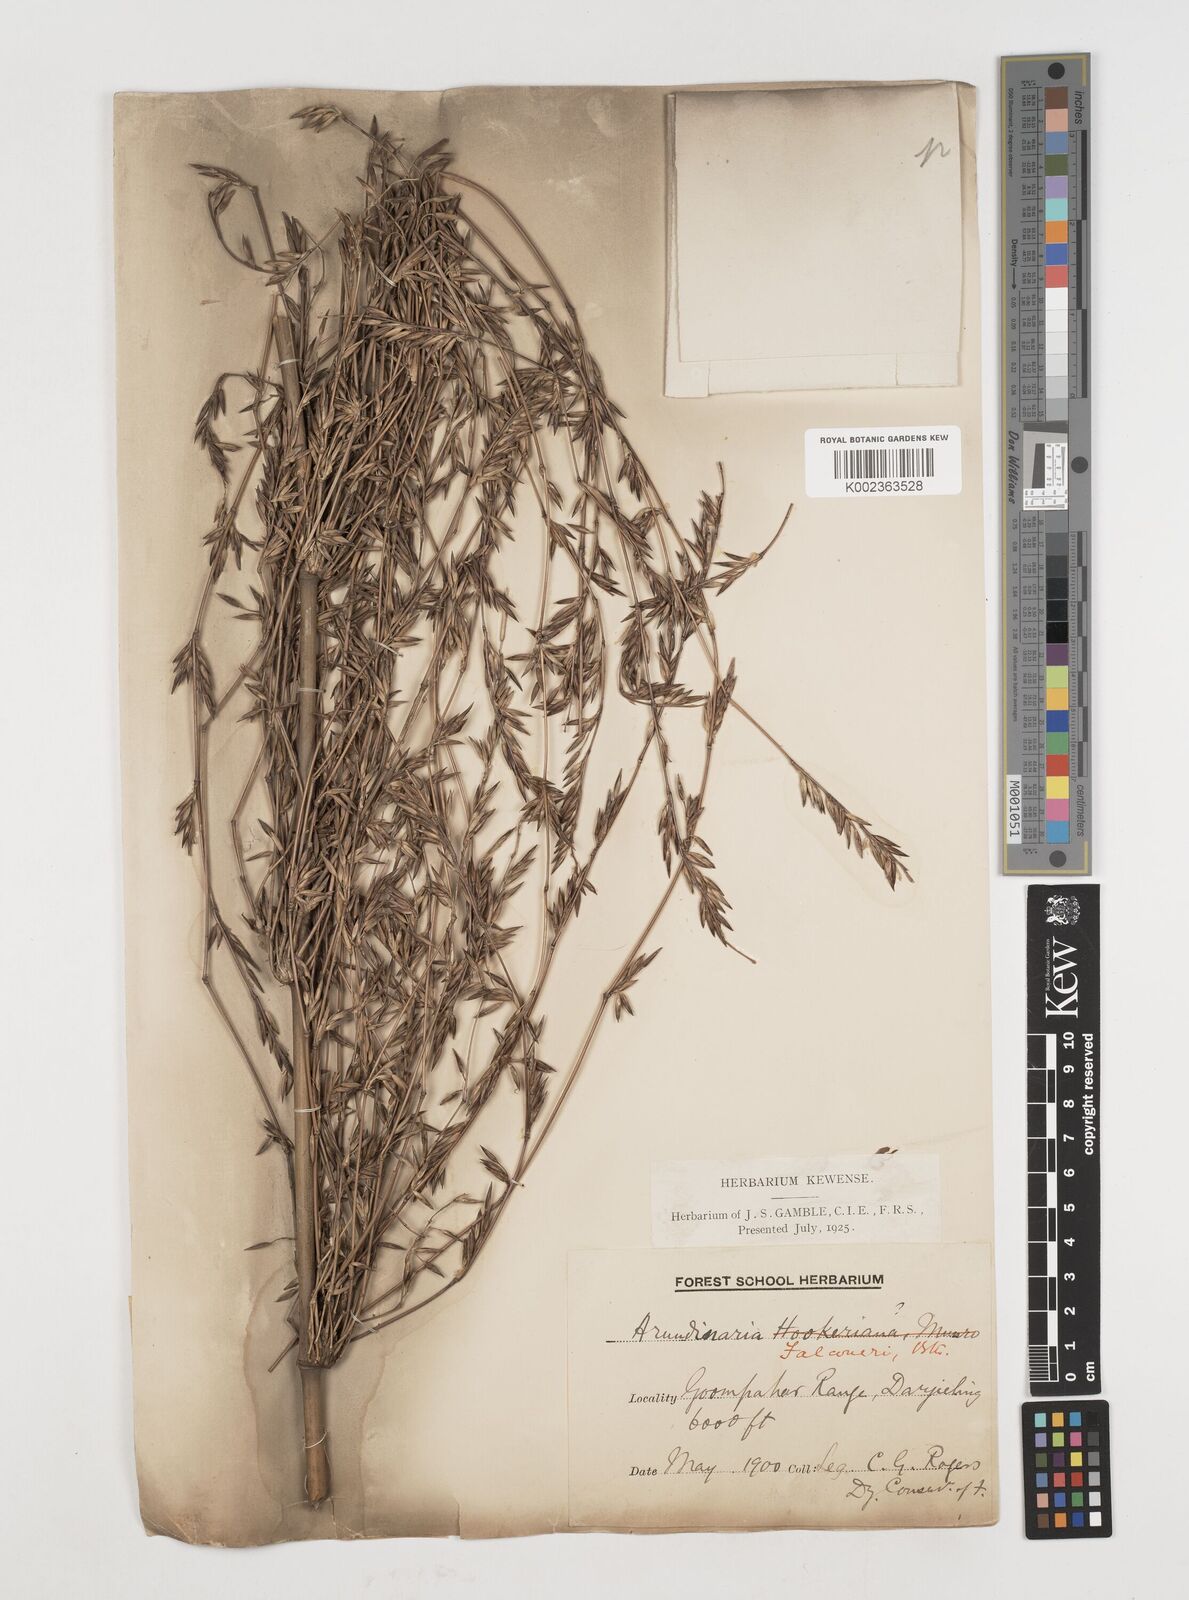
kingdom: Plantae
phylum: Tracheophyta
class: Liliopsida
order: Poales
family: Poaceae
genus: Himalayacalamus
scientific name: Himalayacalamus falconeri
